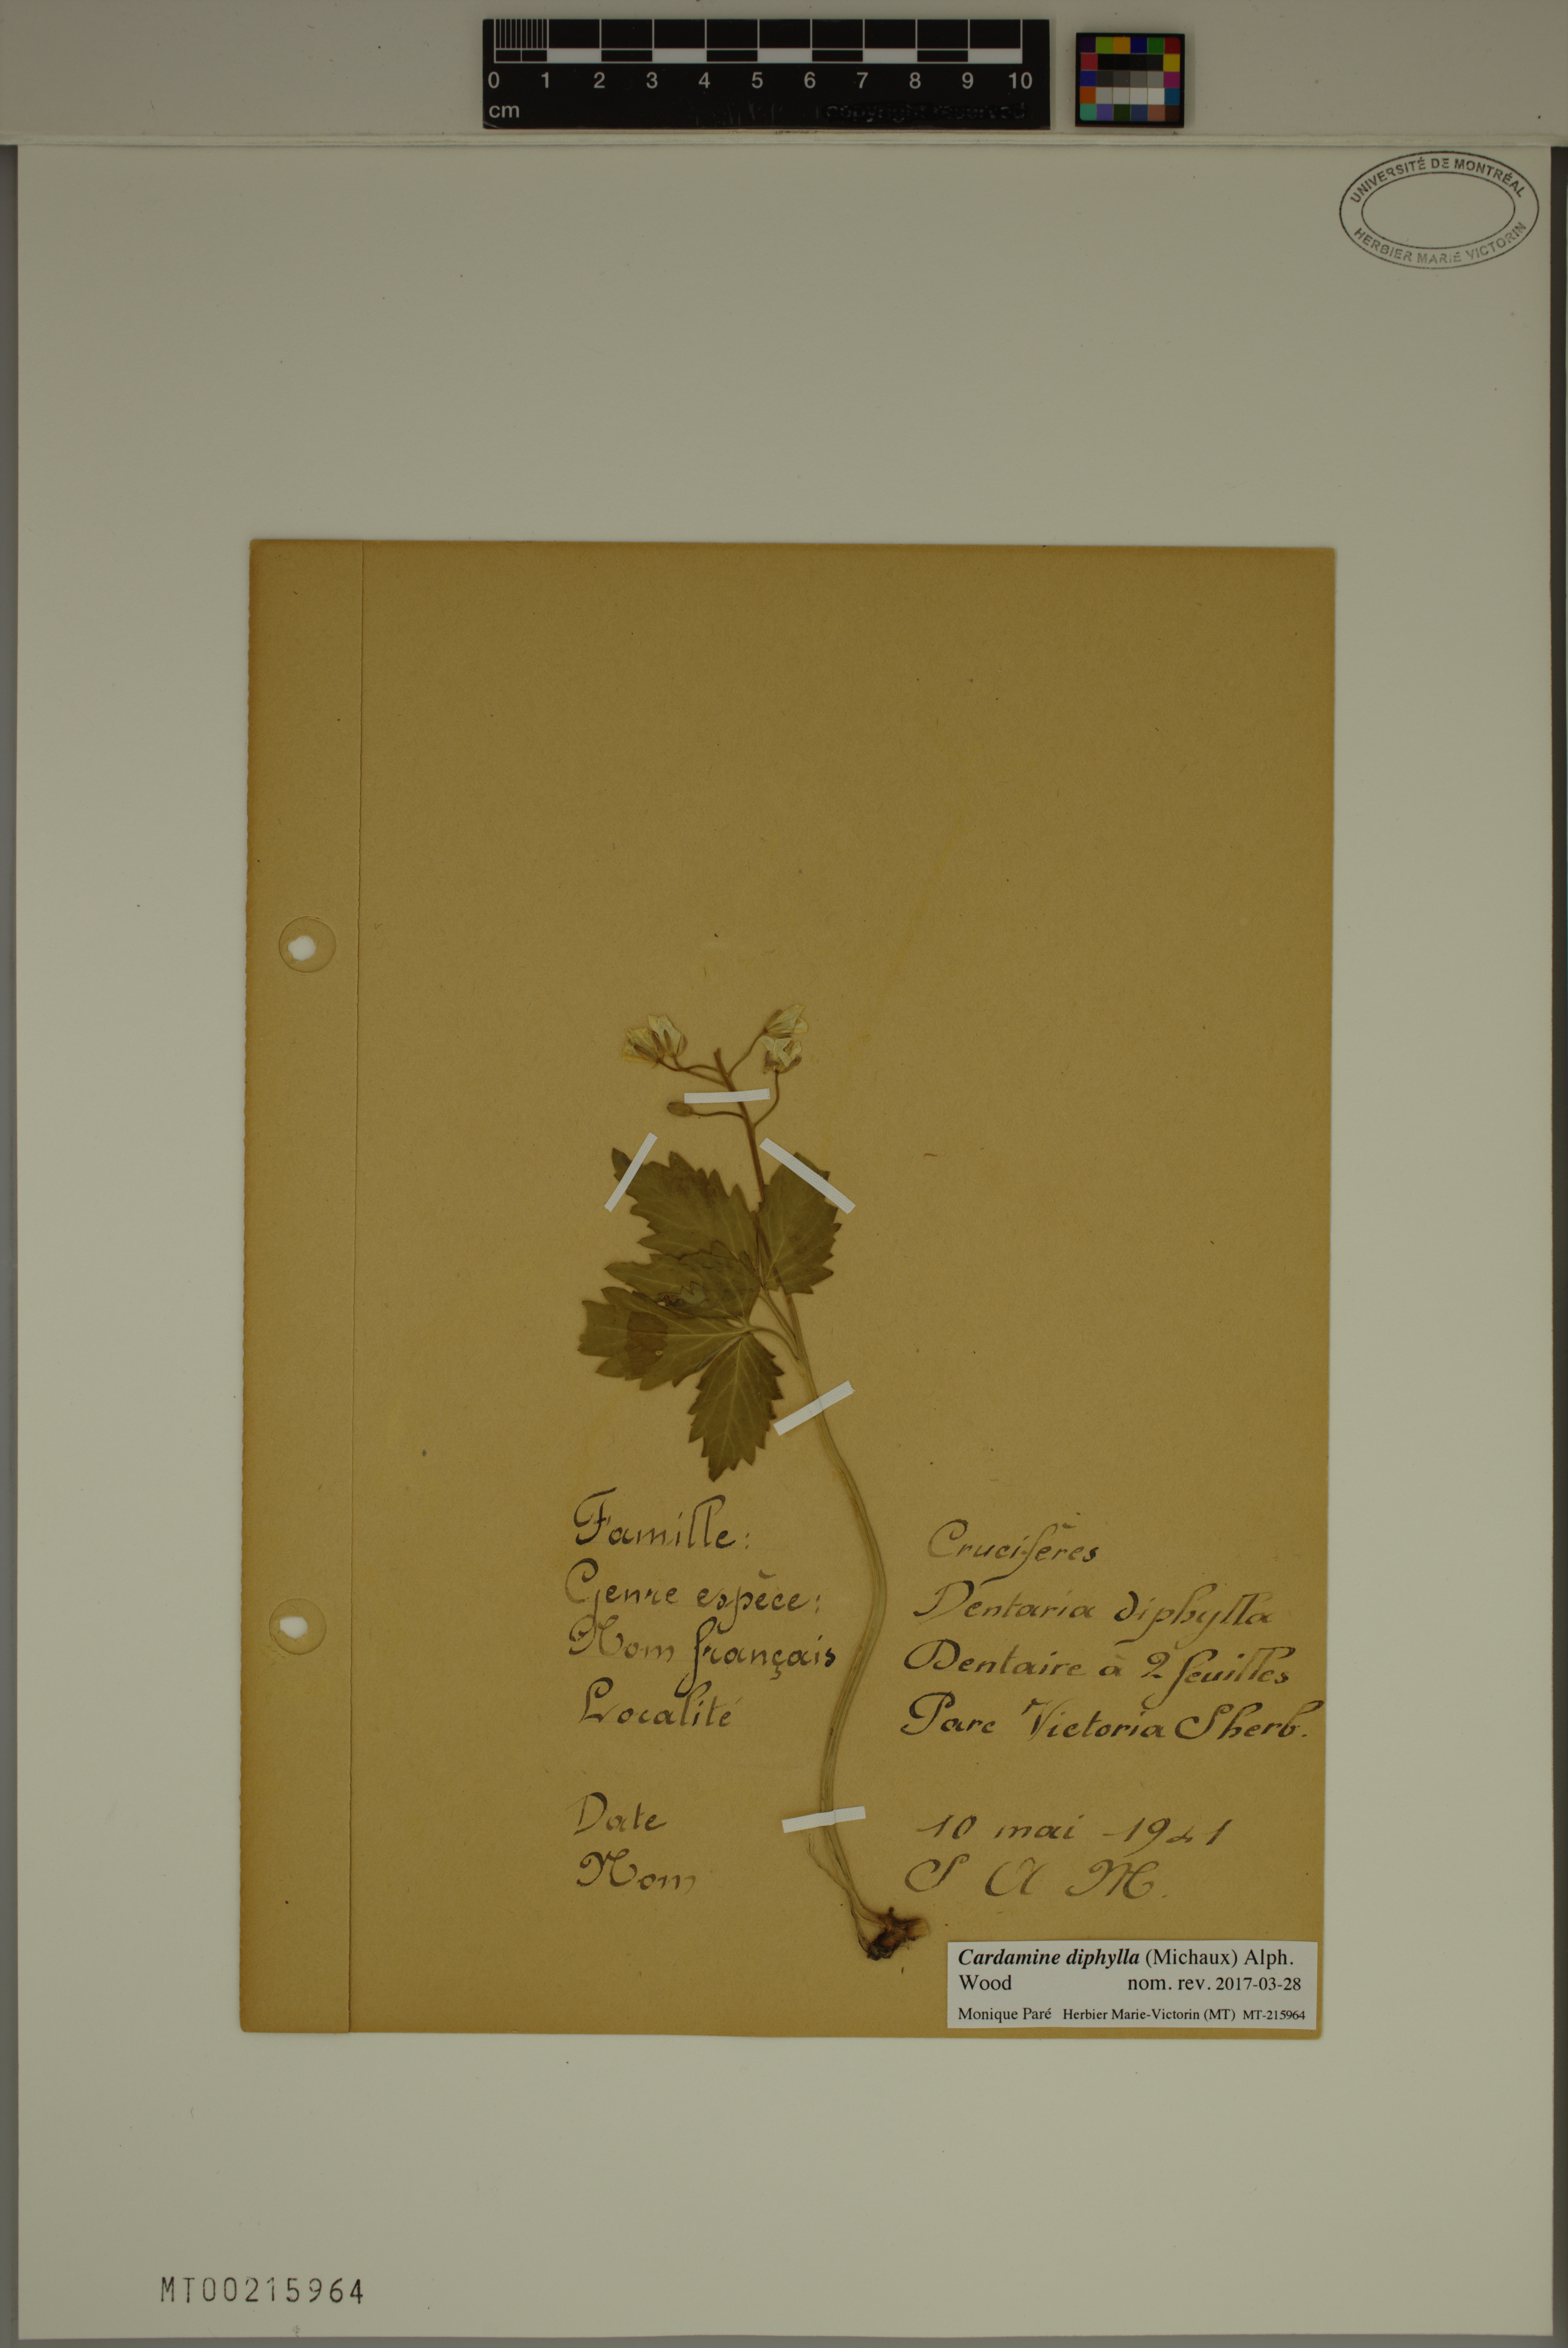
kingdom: Plantae
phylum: Tracheophyta
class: Magnoliopsida
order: Brassicales
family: Brassicaceae
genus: Cardamine
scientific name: Cardamine diphylla
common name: Broad-leaved toothwort
